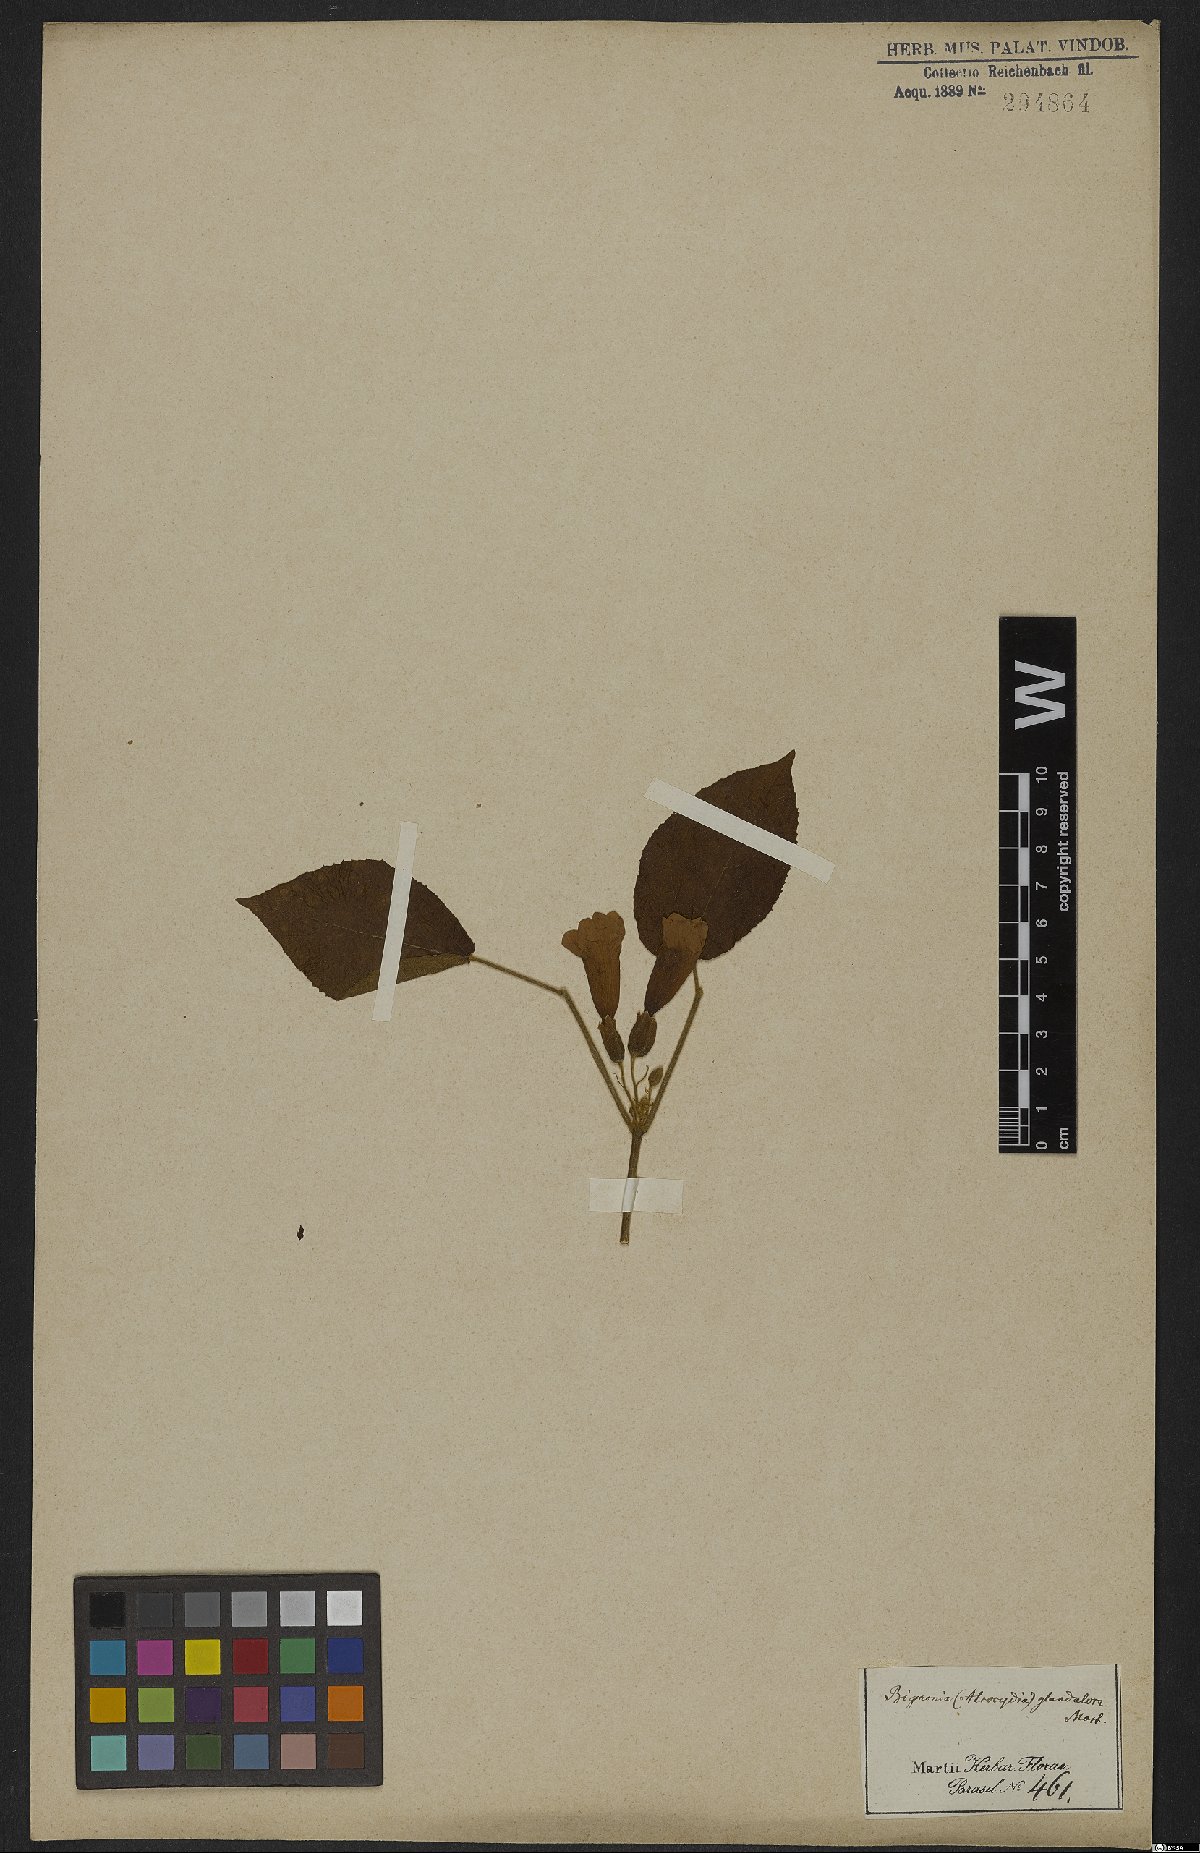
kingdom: Plantae
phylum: Tracheophyta
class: Magnoliopsida
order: Lamiales
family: Bignoniaceae
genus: Stizophyllum
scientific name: Stizophyllum perforatum
